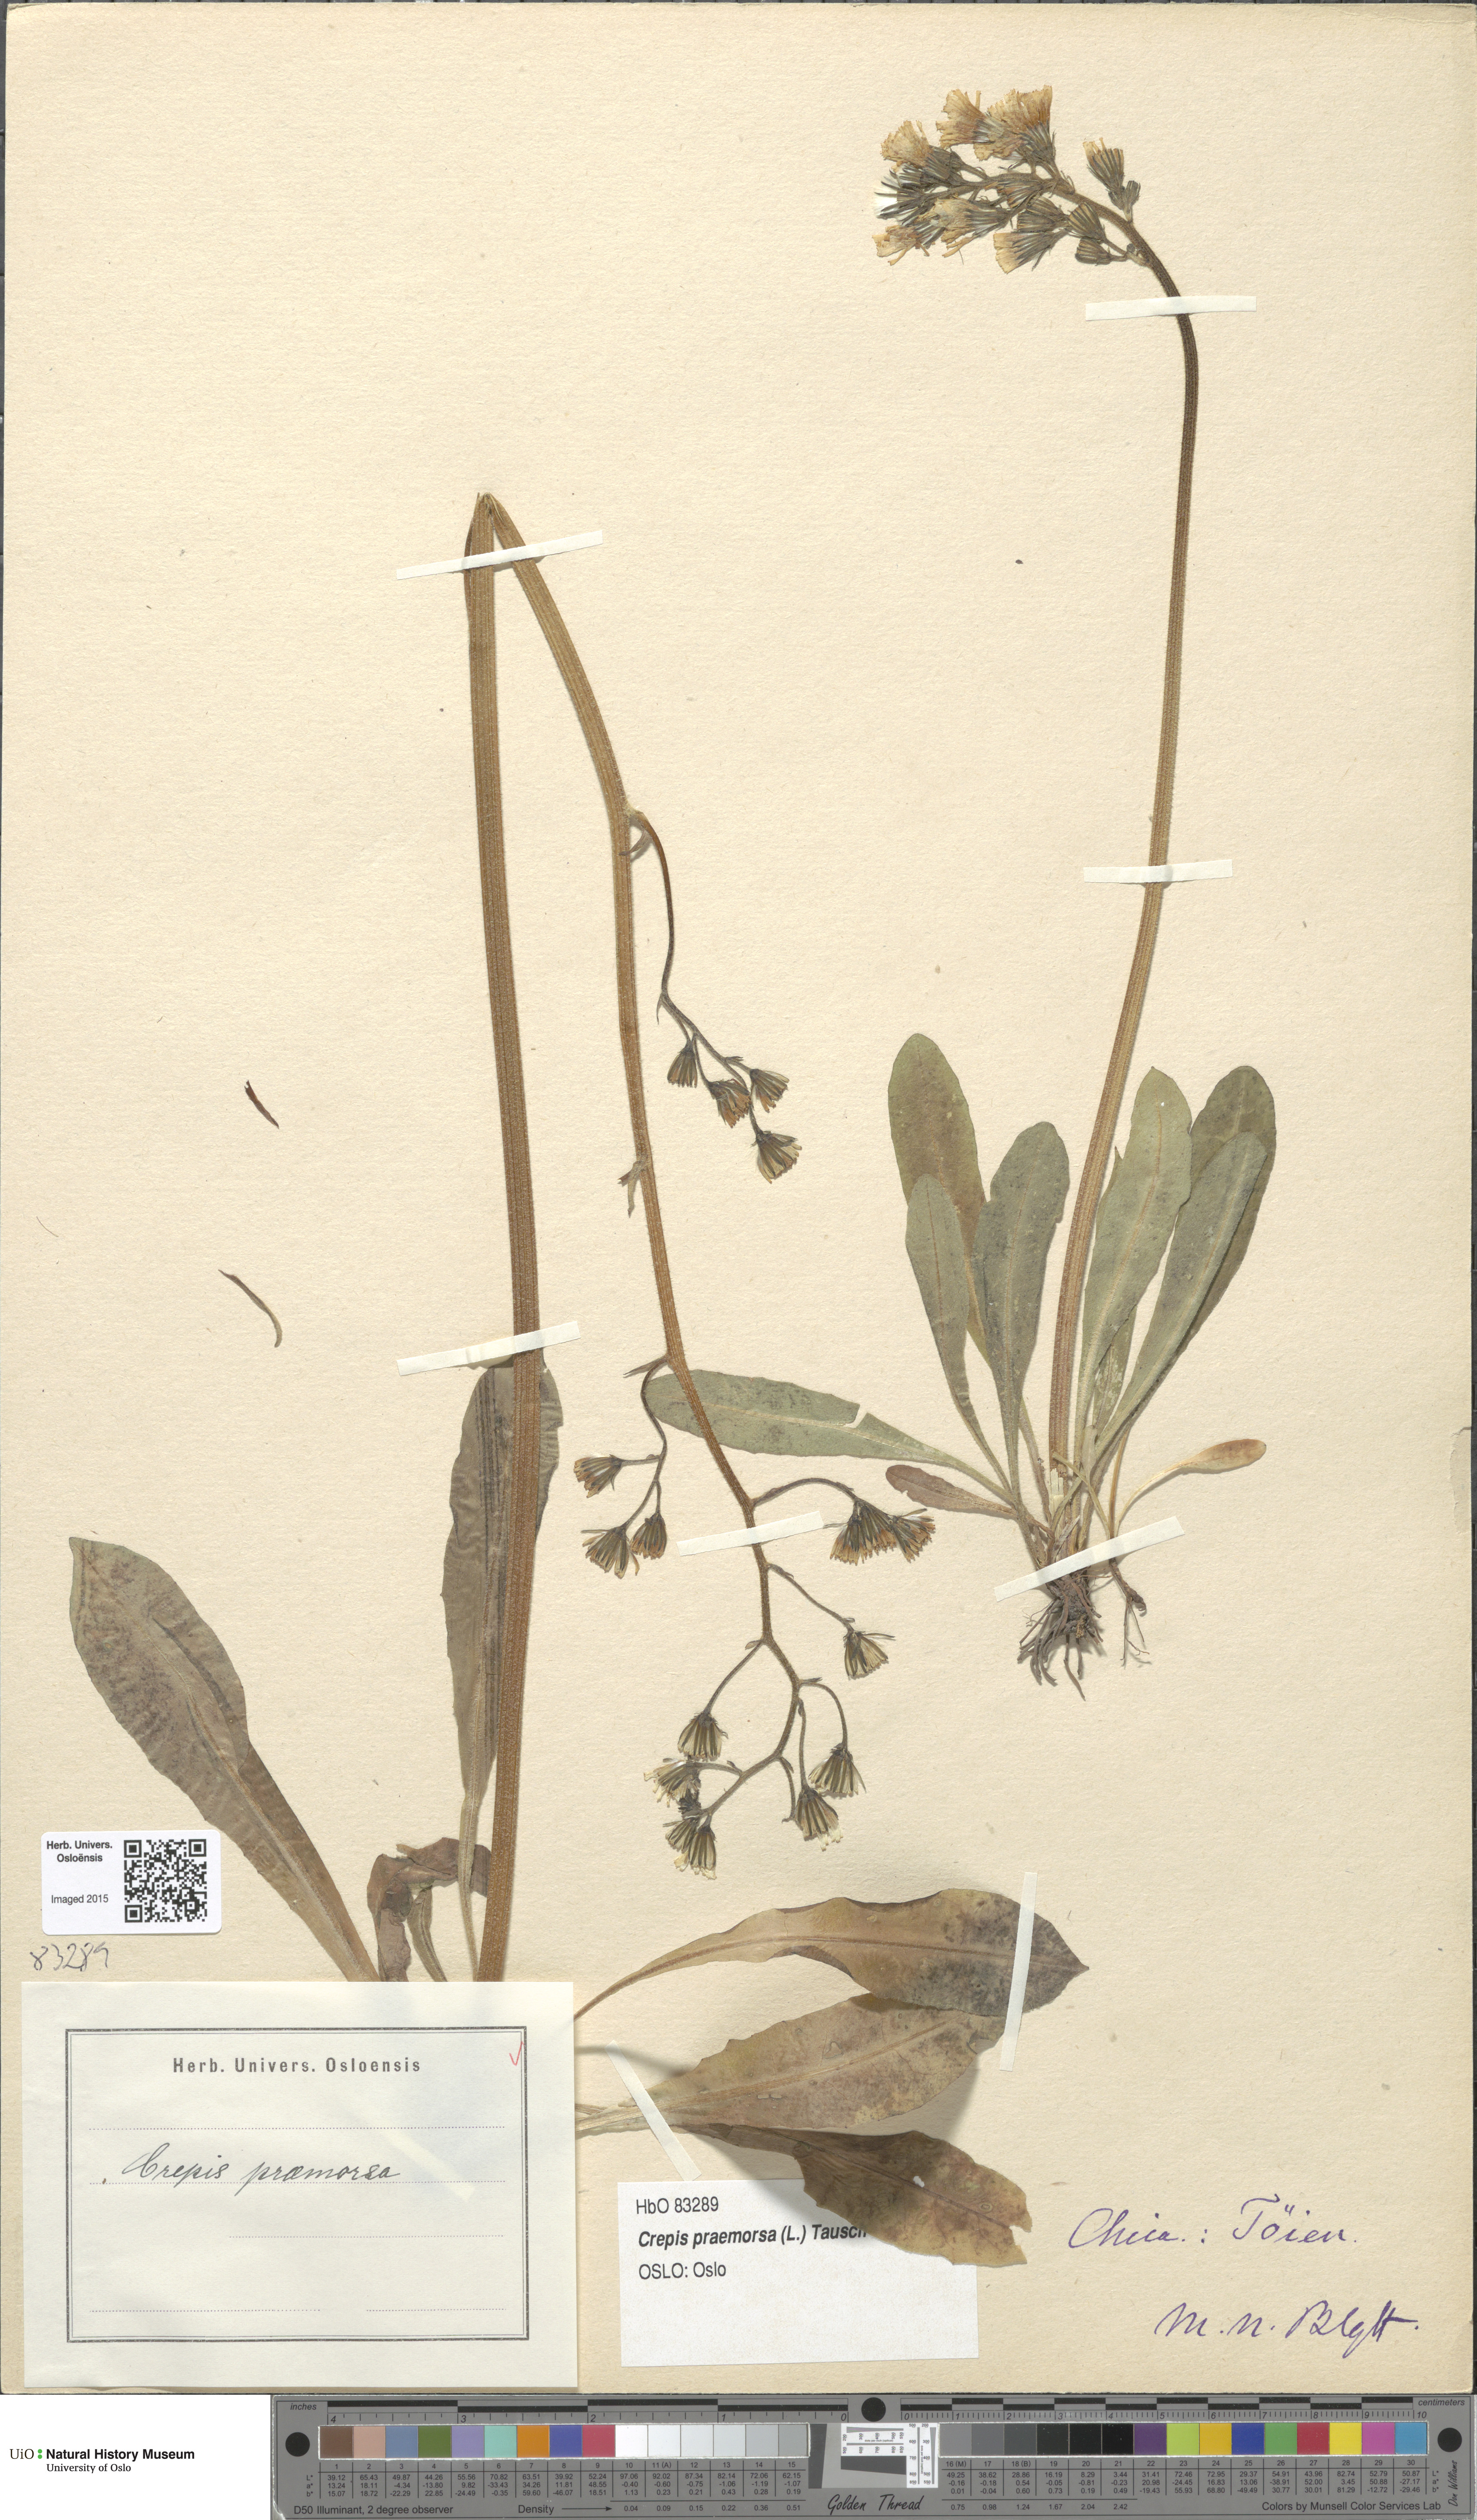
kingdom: Plantae
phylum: Tracheophyta
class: Magnoliopsida
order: Asterales
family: Asteraceae
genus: Crepis
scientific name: Crepis praemorsa
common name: Leafless hawk's-beard
